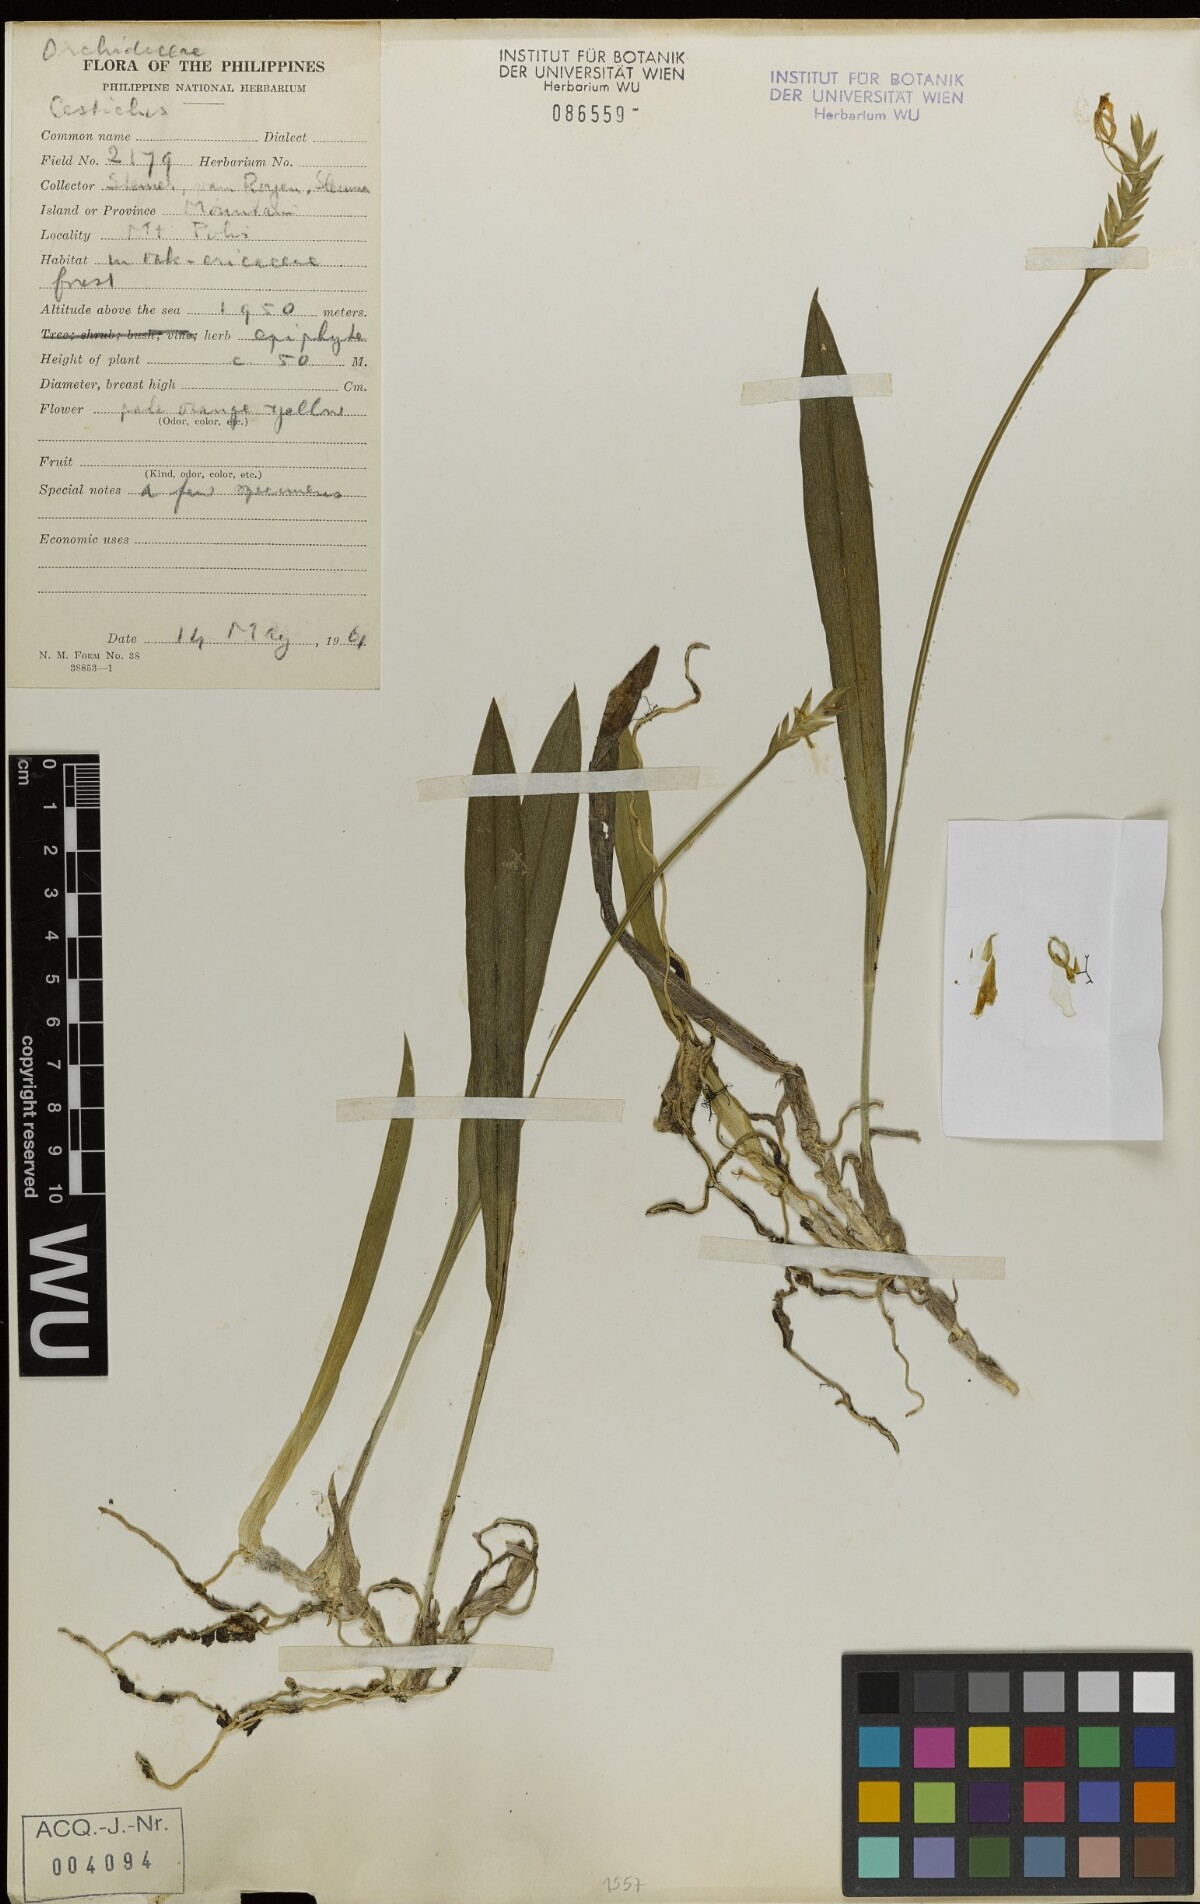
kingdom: Plantae
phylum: Tracheophyta
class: Liliopsida
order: Asparagales
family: Orchidaceae
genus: Liparis
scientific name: Liparis
